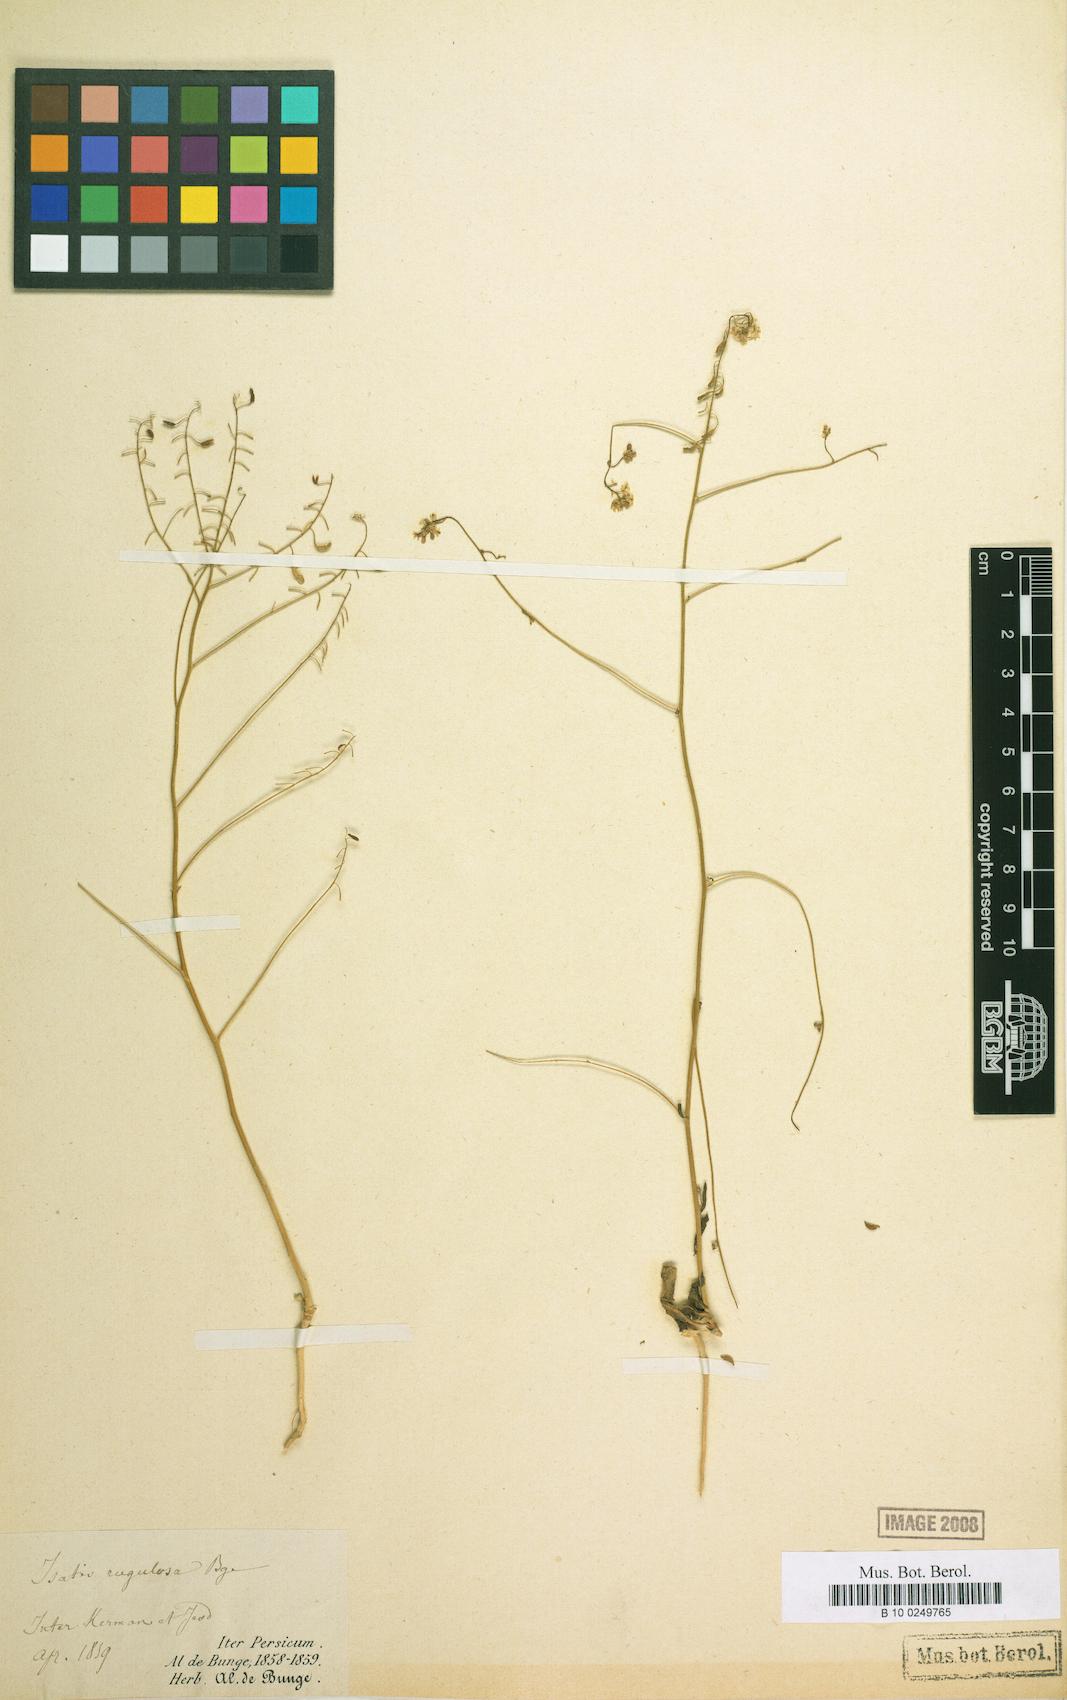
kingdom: Plantae
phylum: Tracheophyta
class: Magnoliopsida
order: Brassicales
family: Brassicaceae
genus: Isatis
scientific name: Isatis rugulosa
